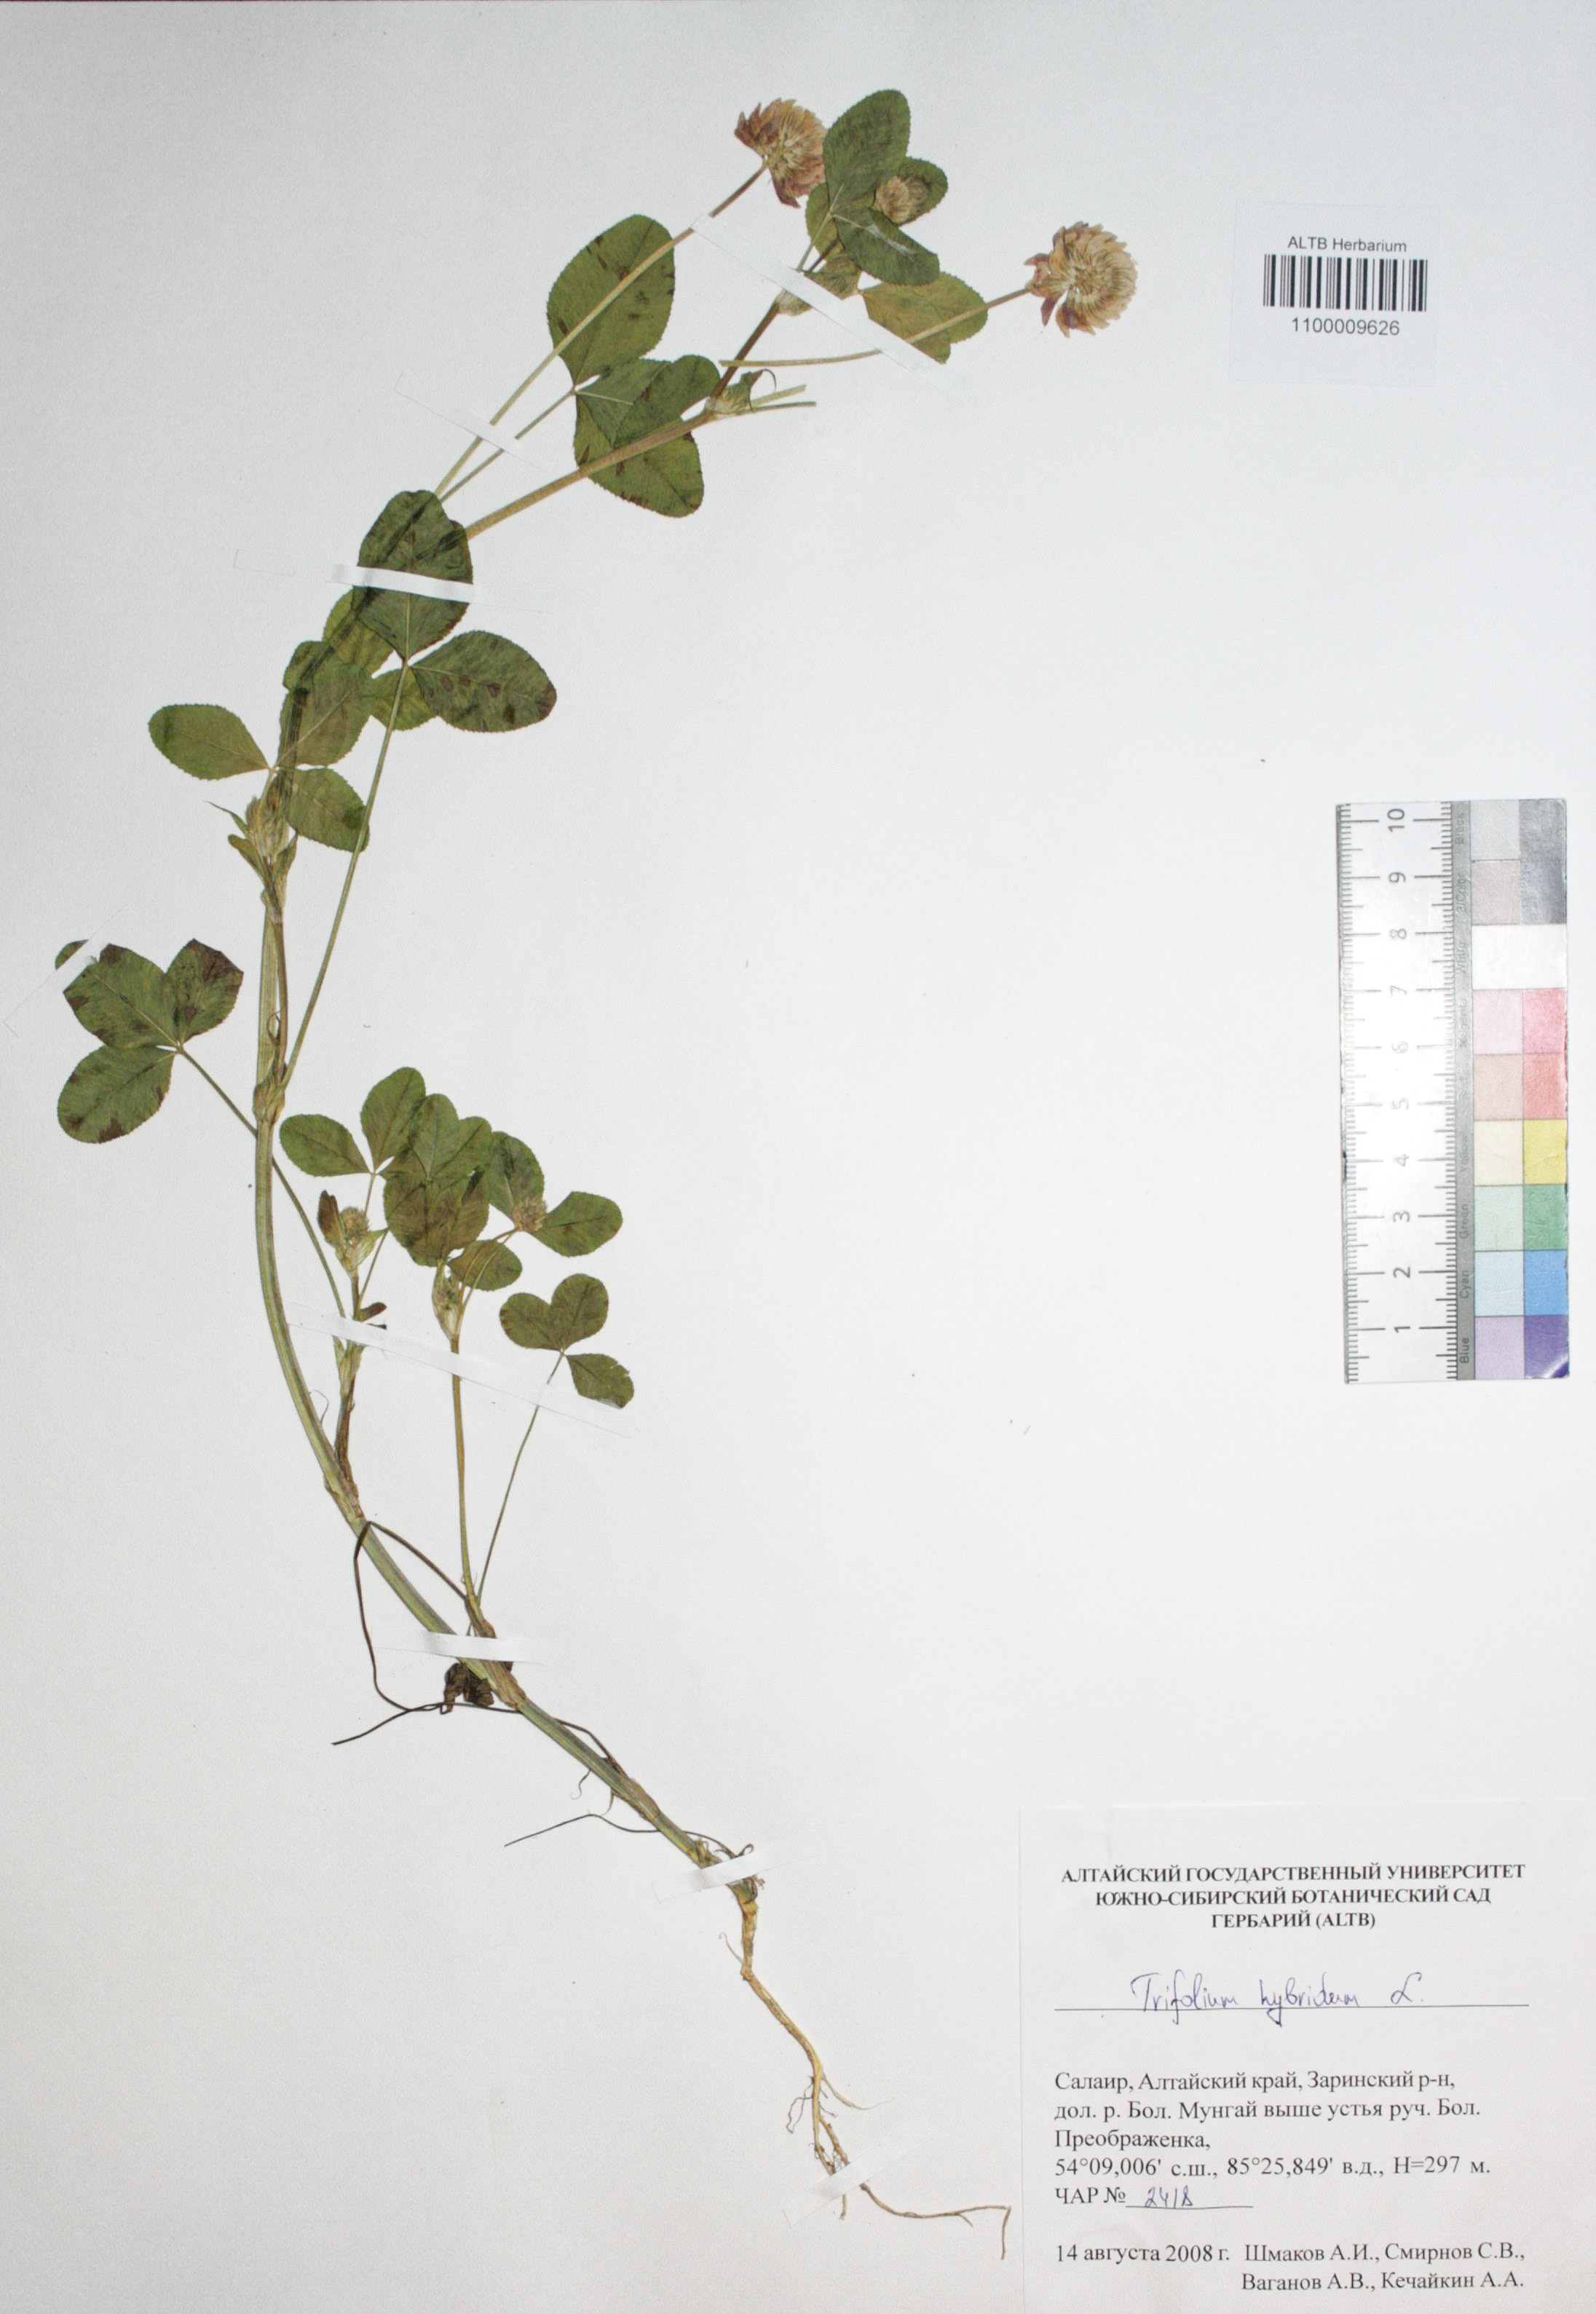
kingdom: Plantae
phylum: Tracheophyta
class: Magnoliopsida
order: Fabales
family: Fabaceae
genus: Trifolium
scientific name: Trifolium hybridum
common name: Alsike clover
